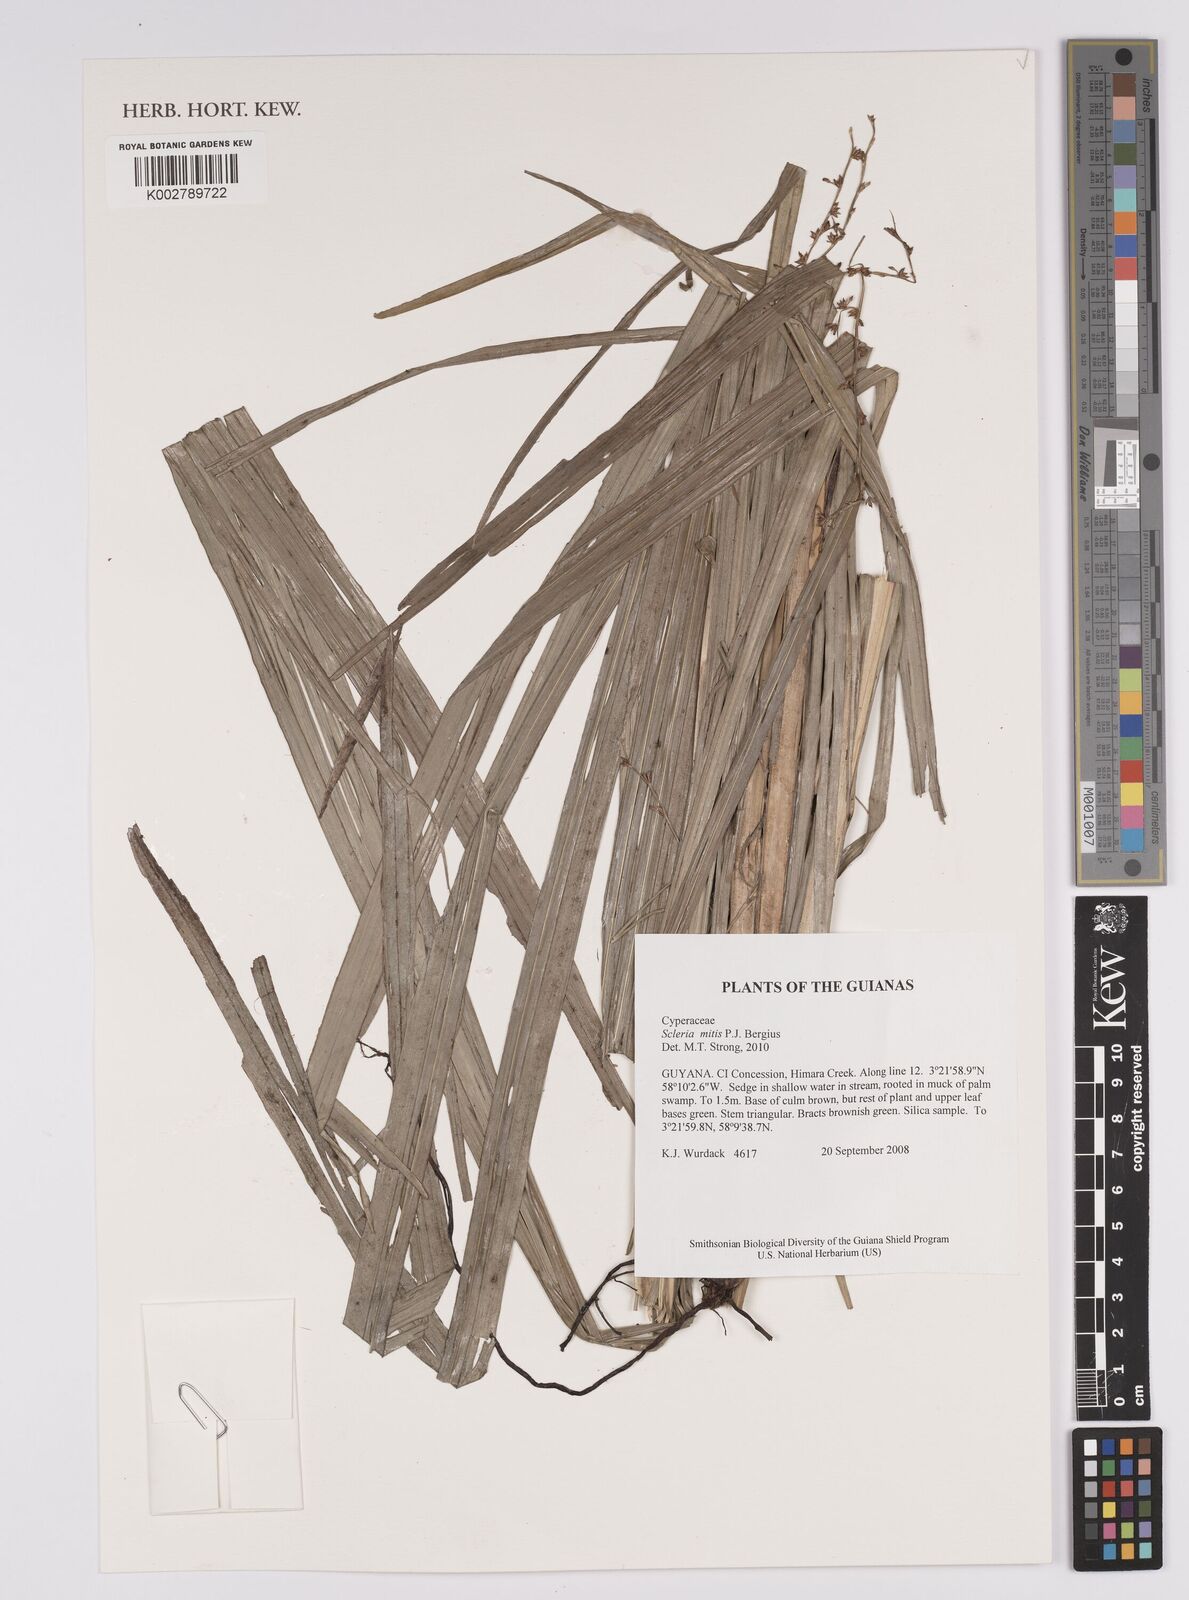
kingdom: Plantae
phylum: Tracheophyta
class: Liliopsida
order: Poales
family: Cyperaceae
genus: Scleria
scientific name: Scleria mitis
